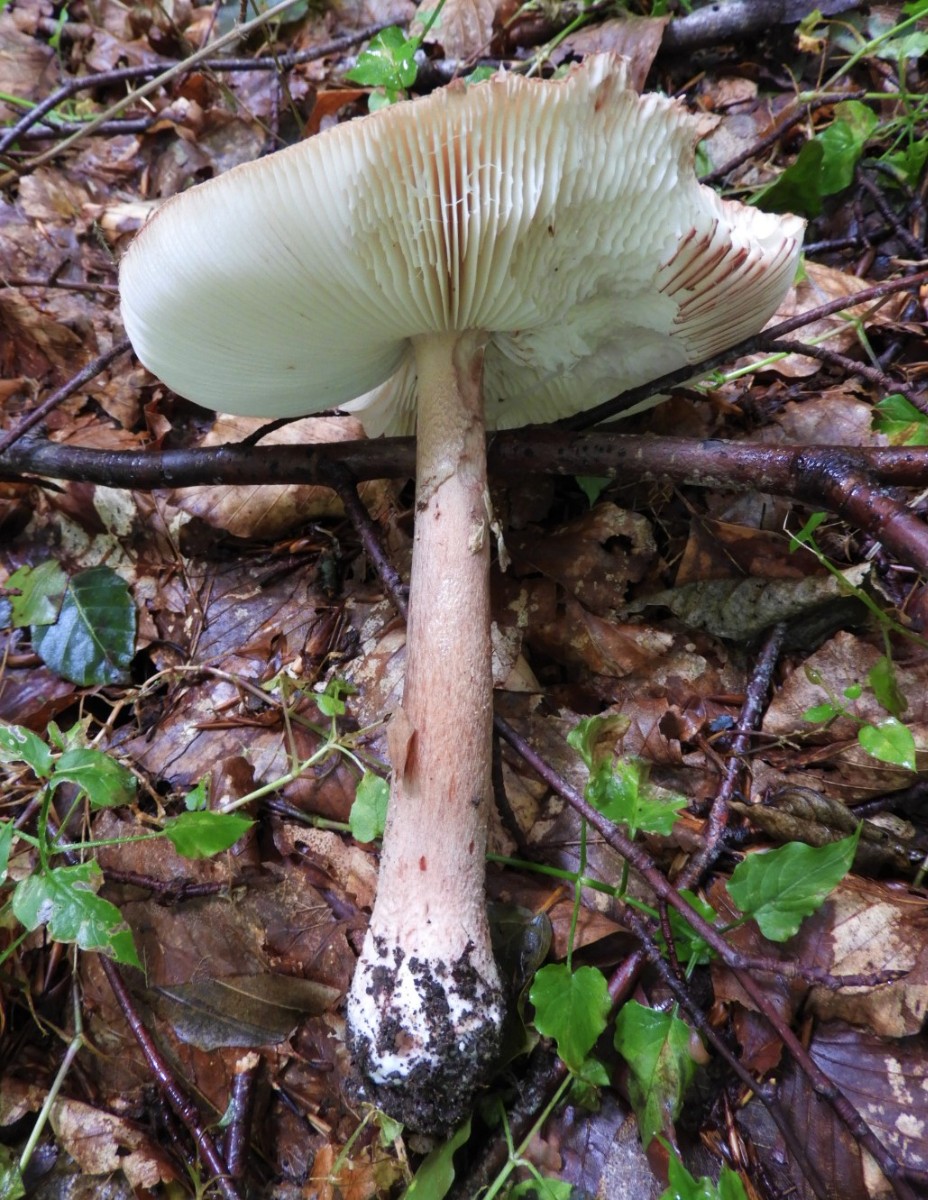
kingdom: Fungi
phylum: Basidiomycota
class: Agaricomycetes
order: Agaricales
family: Amanitaceae
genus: Amanita
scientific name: Amanita rubescens
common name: rødmende fluesvamp
